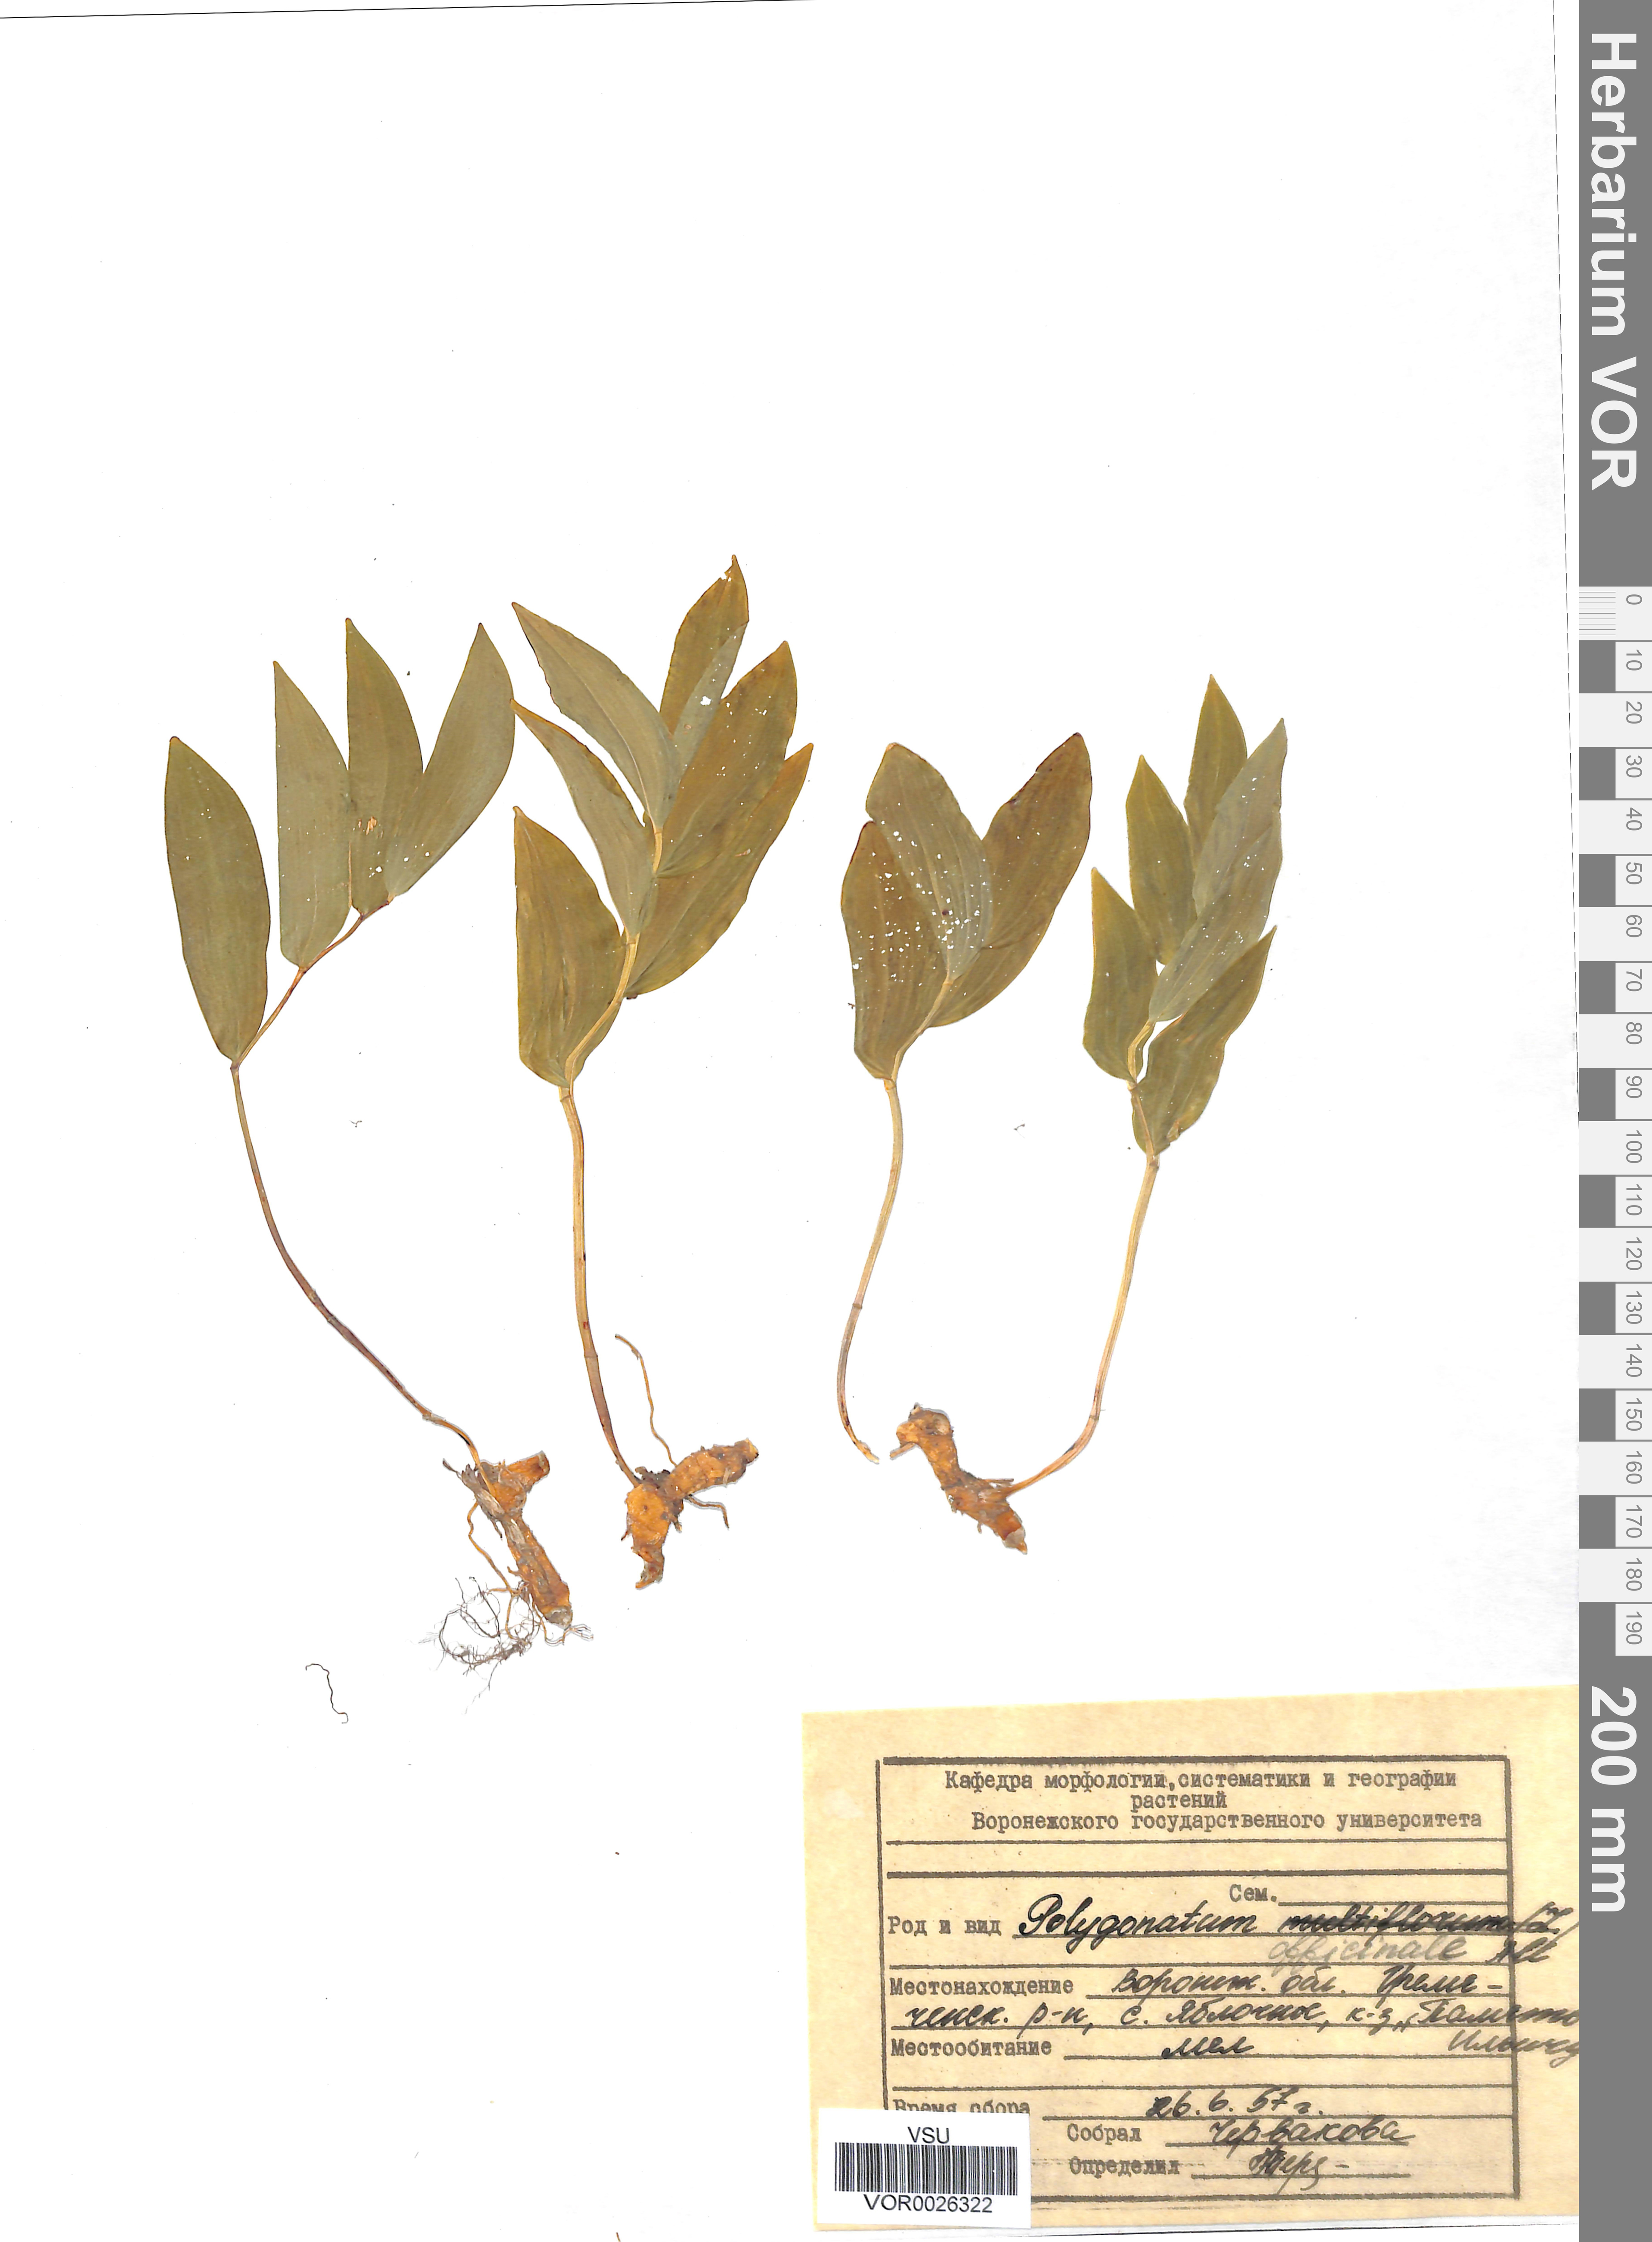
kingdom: Plantae
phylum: Tracheophyta
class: Liliopsida
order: Asparagales
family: Asparagaceae
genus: Polygonatum
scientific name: Polygonatum odoratum
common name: Angular solomon's-seal
